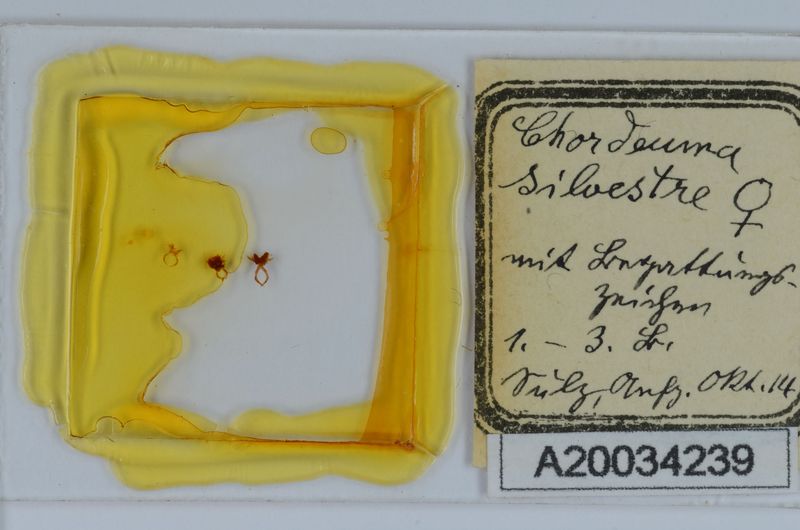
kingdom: Animalia
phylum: Arthropoda
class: Diplopoda
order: Chordeumatida
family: Chordeumatidae
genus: Chordeuma
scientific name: Chordeuma sylvestre
